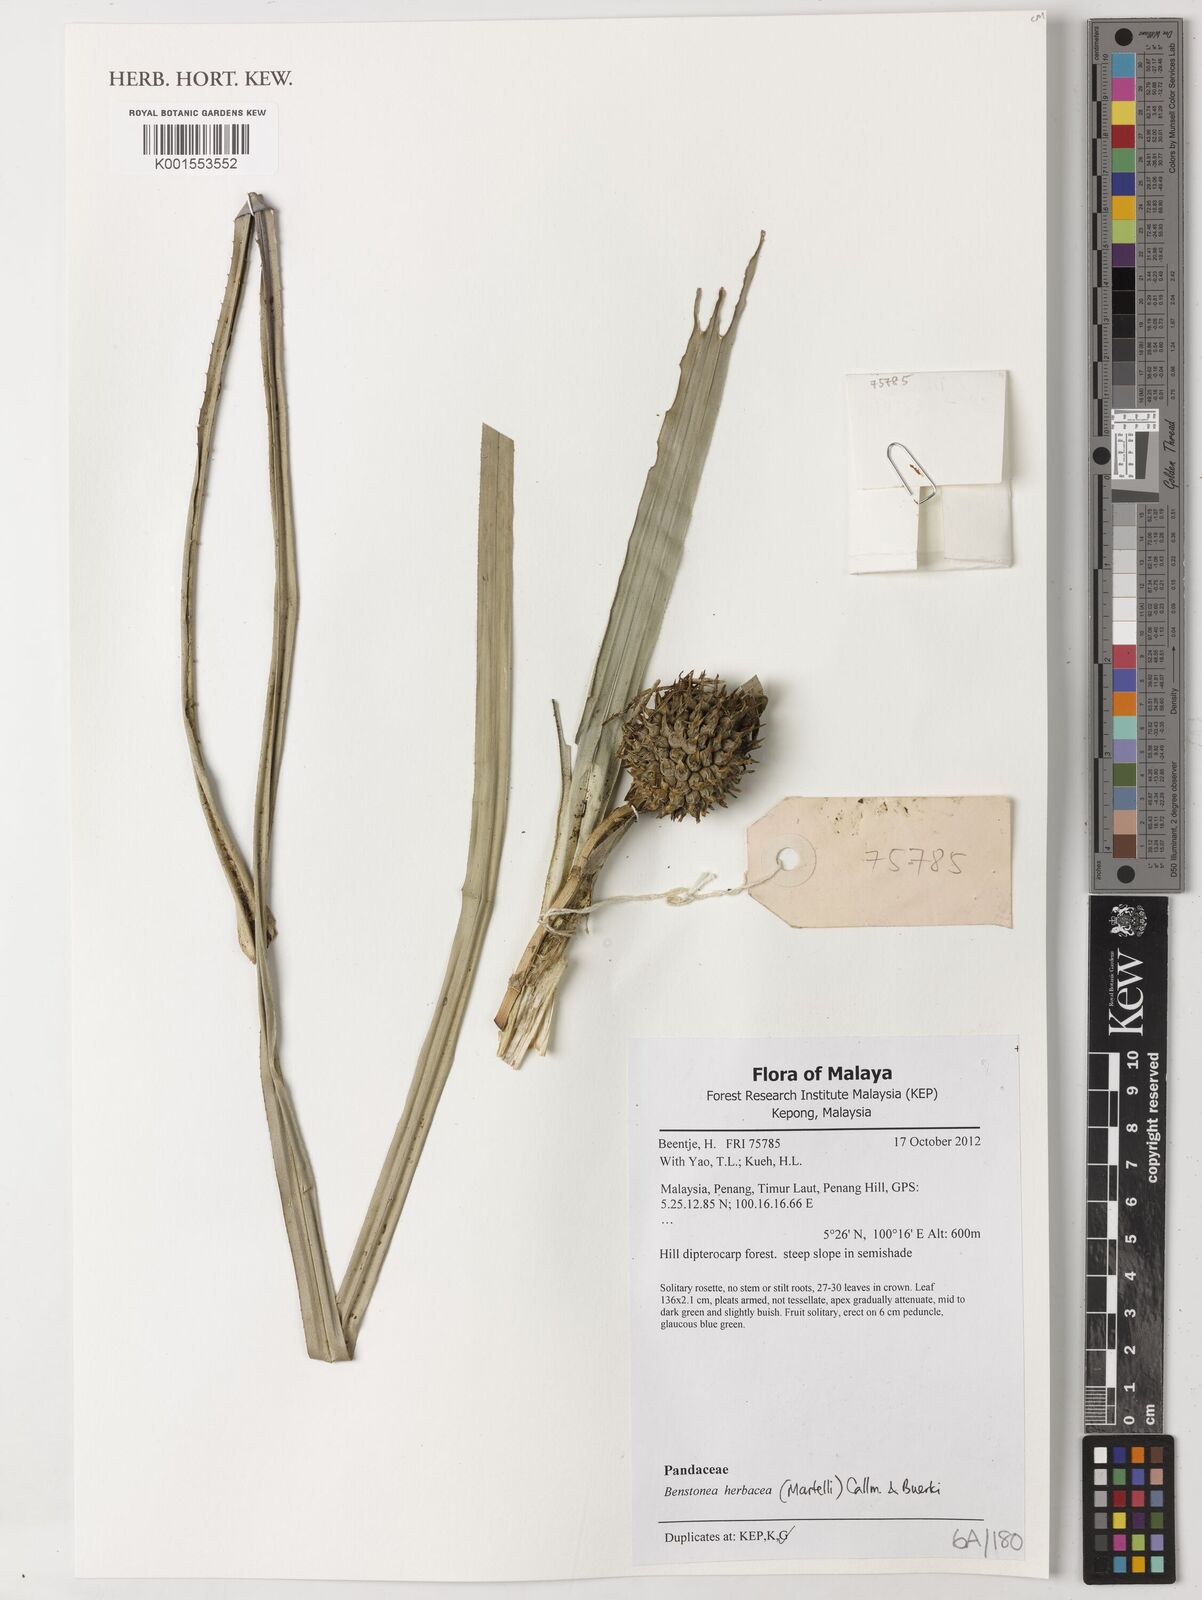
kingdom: Plantae
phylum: Tracheophyta
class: Liliopsida
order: Pandanales
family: Pandanaceae
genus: Benstonea
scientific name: Benstonea herbacea
